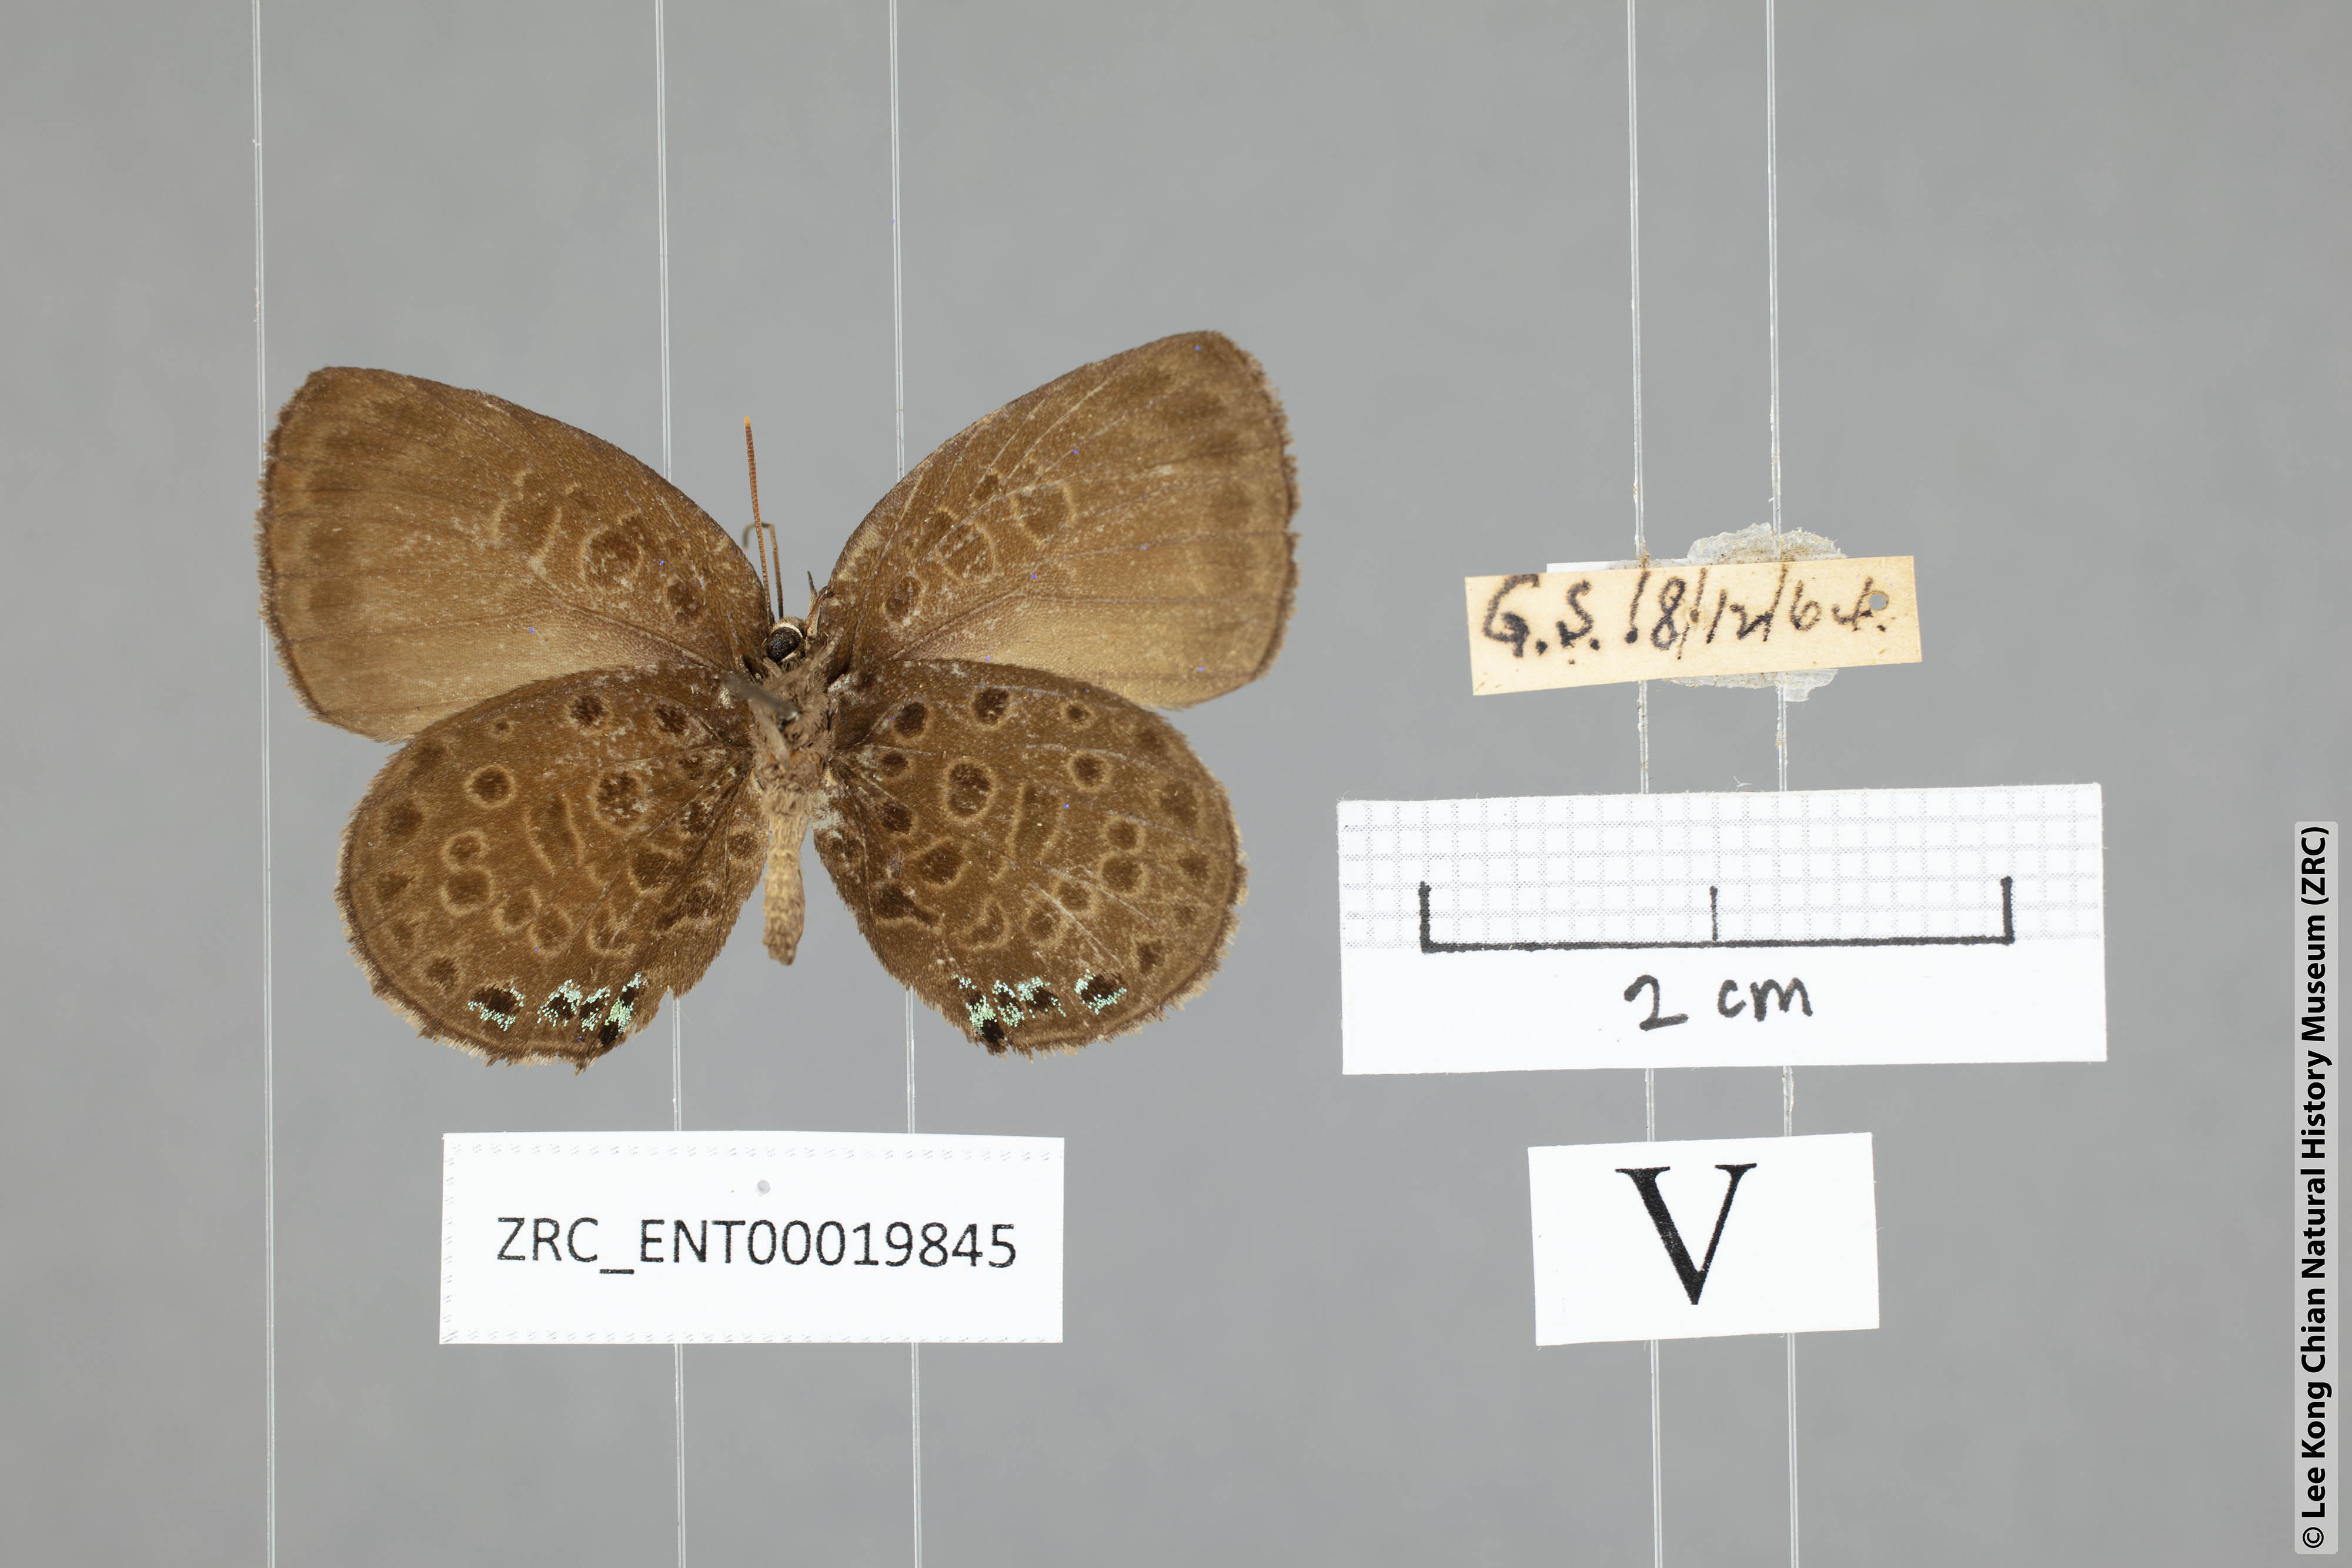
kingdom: Animalia
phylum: Arthropoda
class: Insecta
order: Lepidoptera
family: Lycaenidae
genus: Arhopala
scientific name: Arhopala similis
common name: Druce's oakblue
